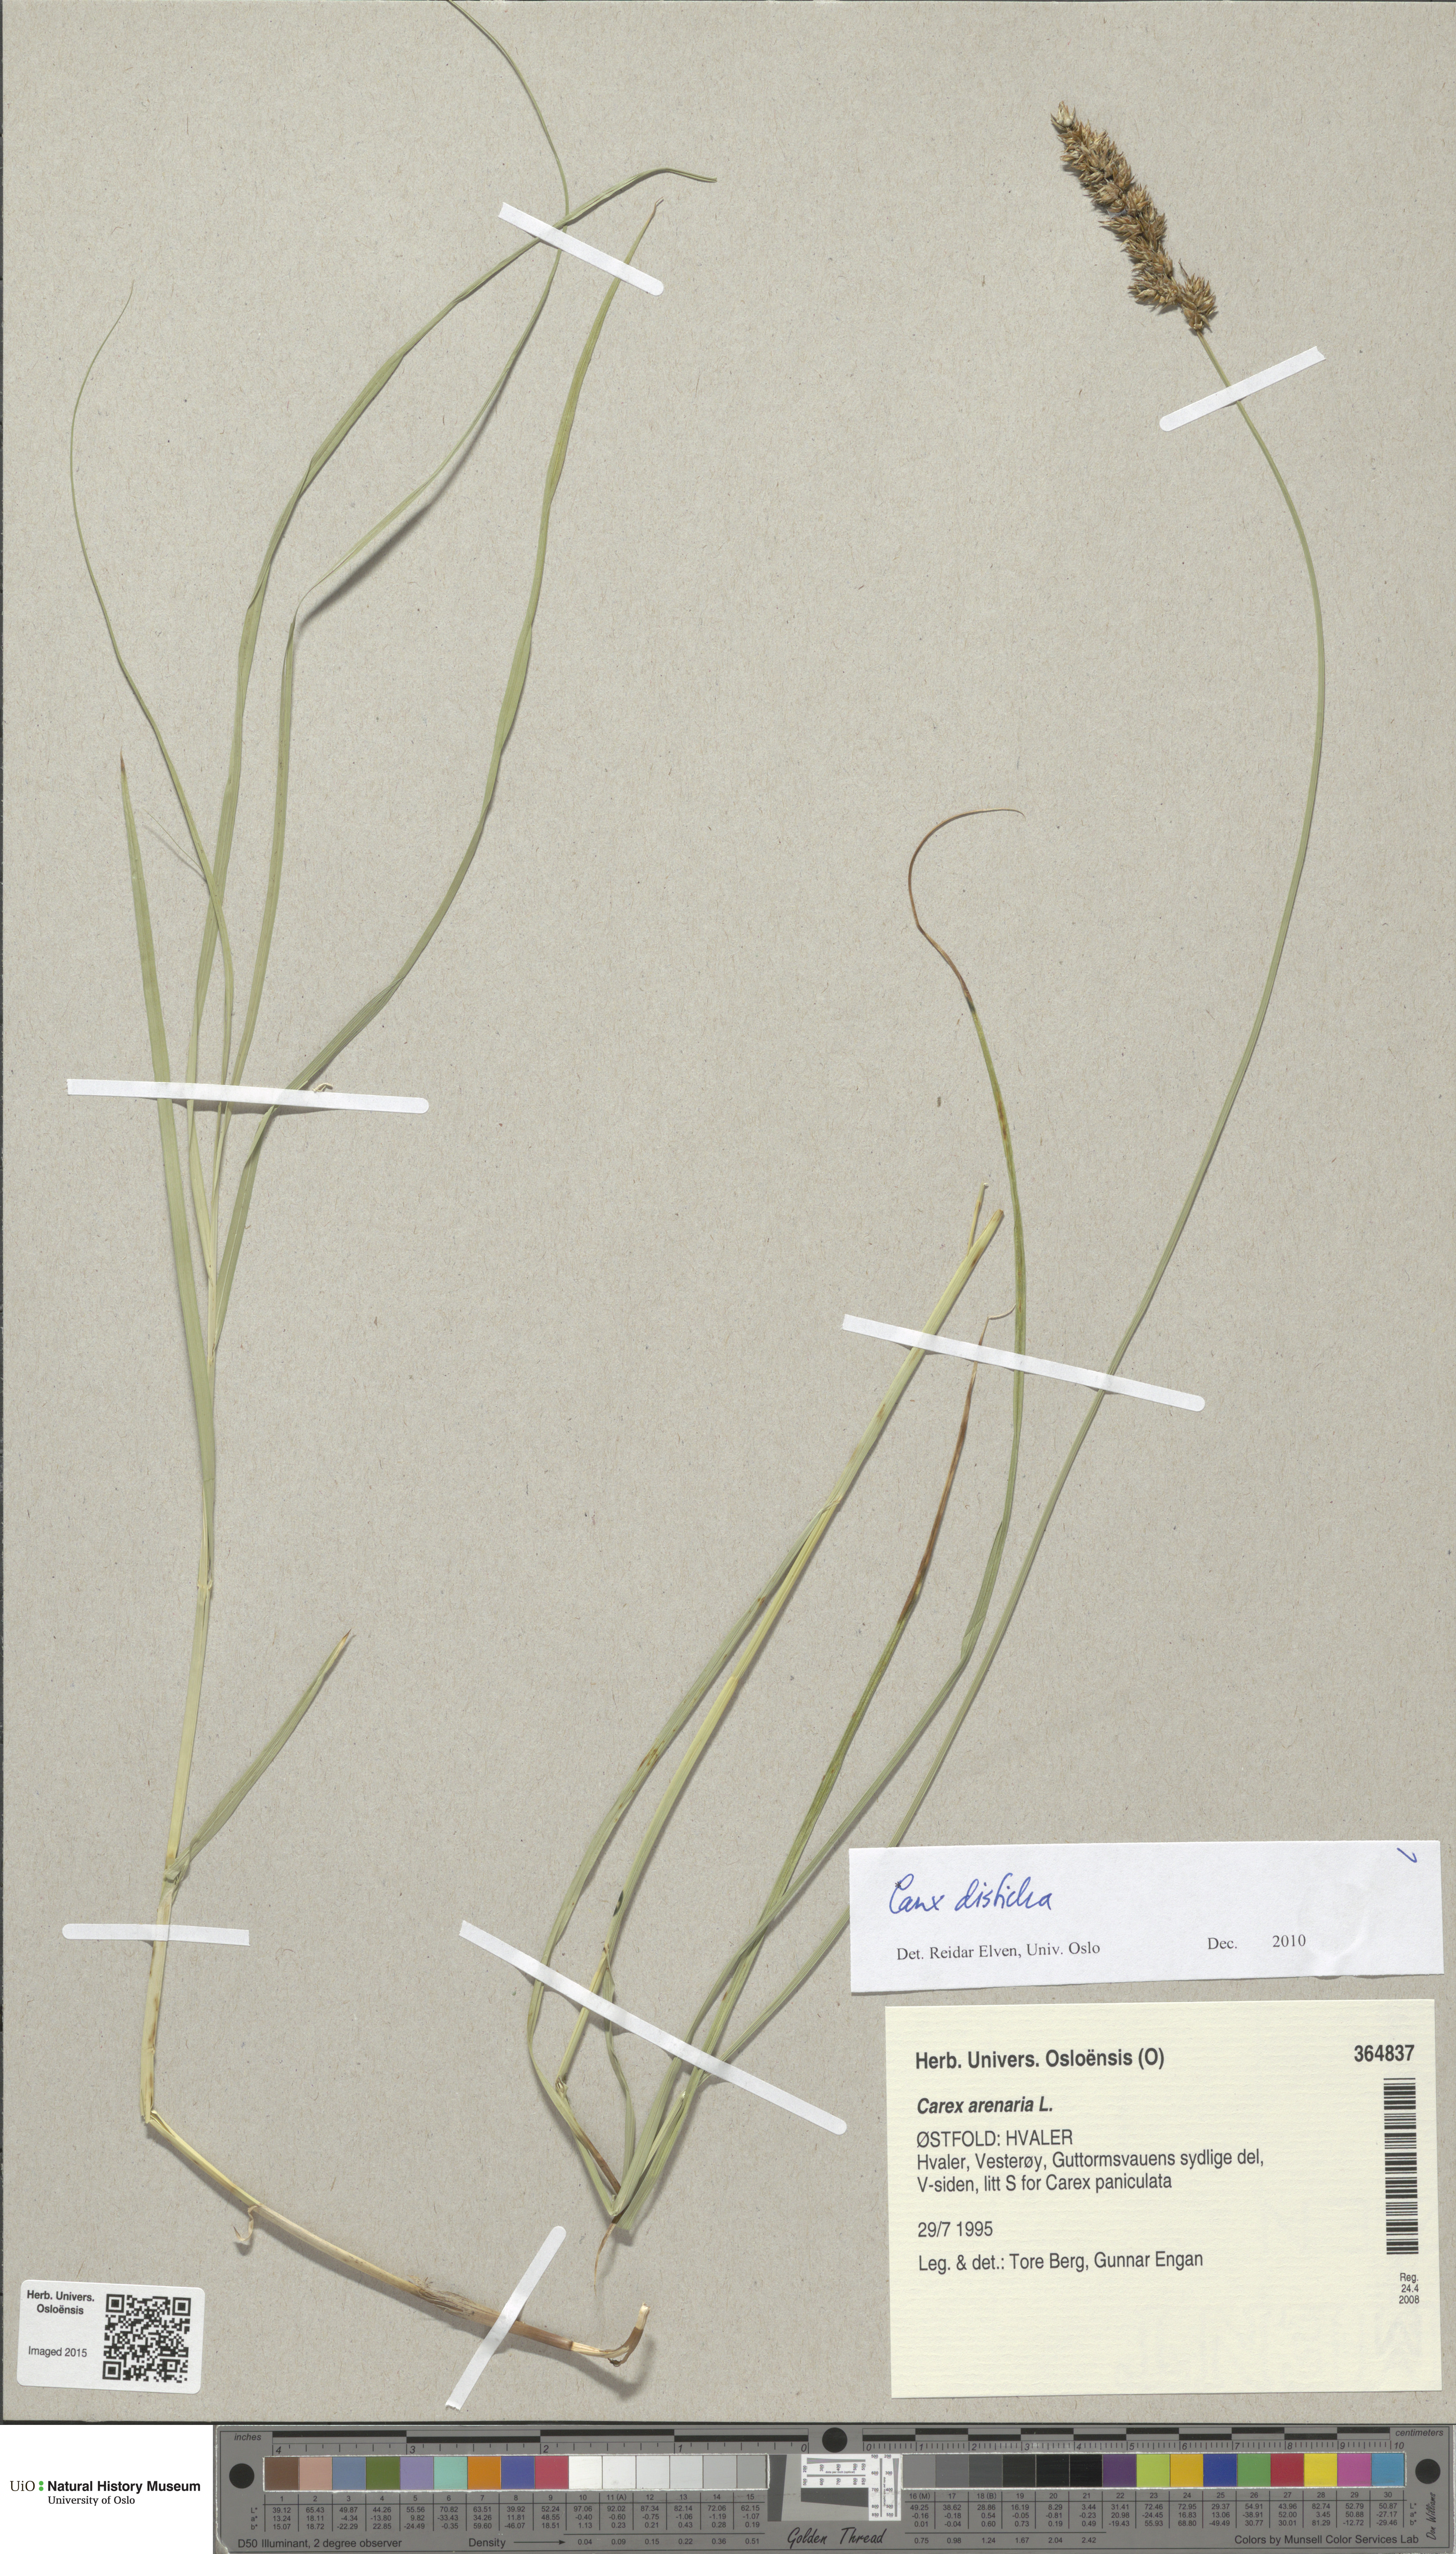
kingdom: Plantae
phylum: Tracheophyta
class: Liliopsida
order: Poales
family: Cyperaceae
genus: Carex
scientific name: Carex disticha
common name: Brown sedge
